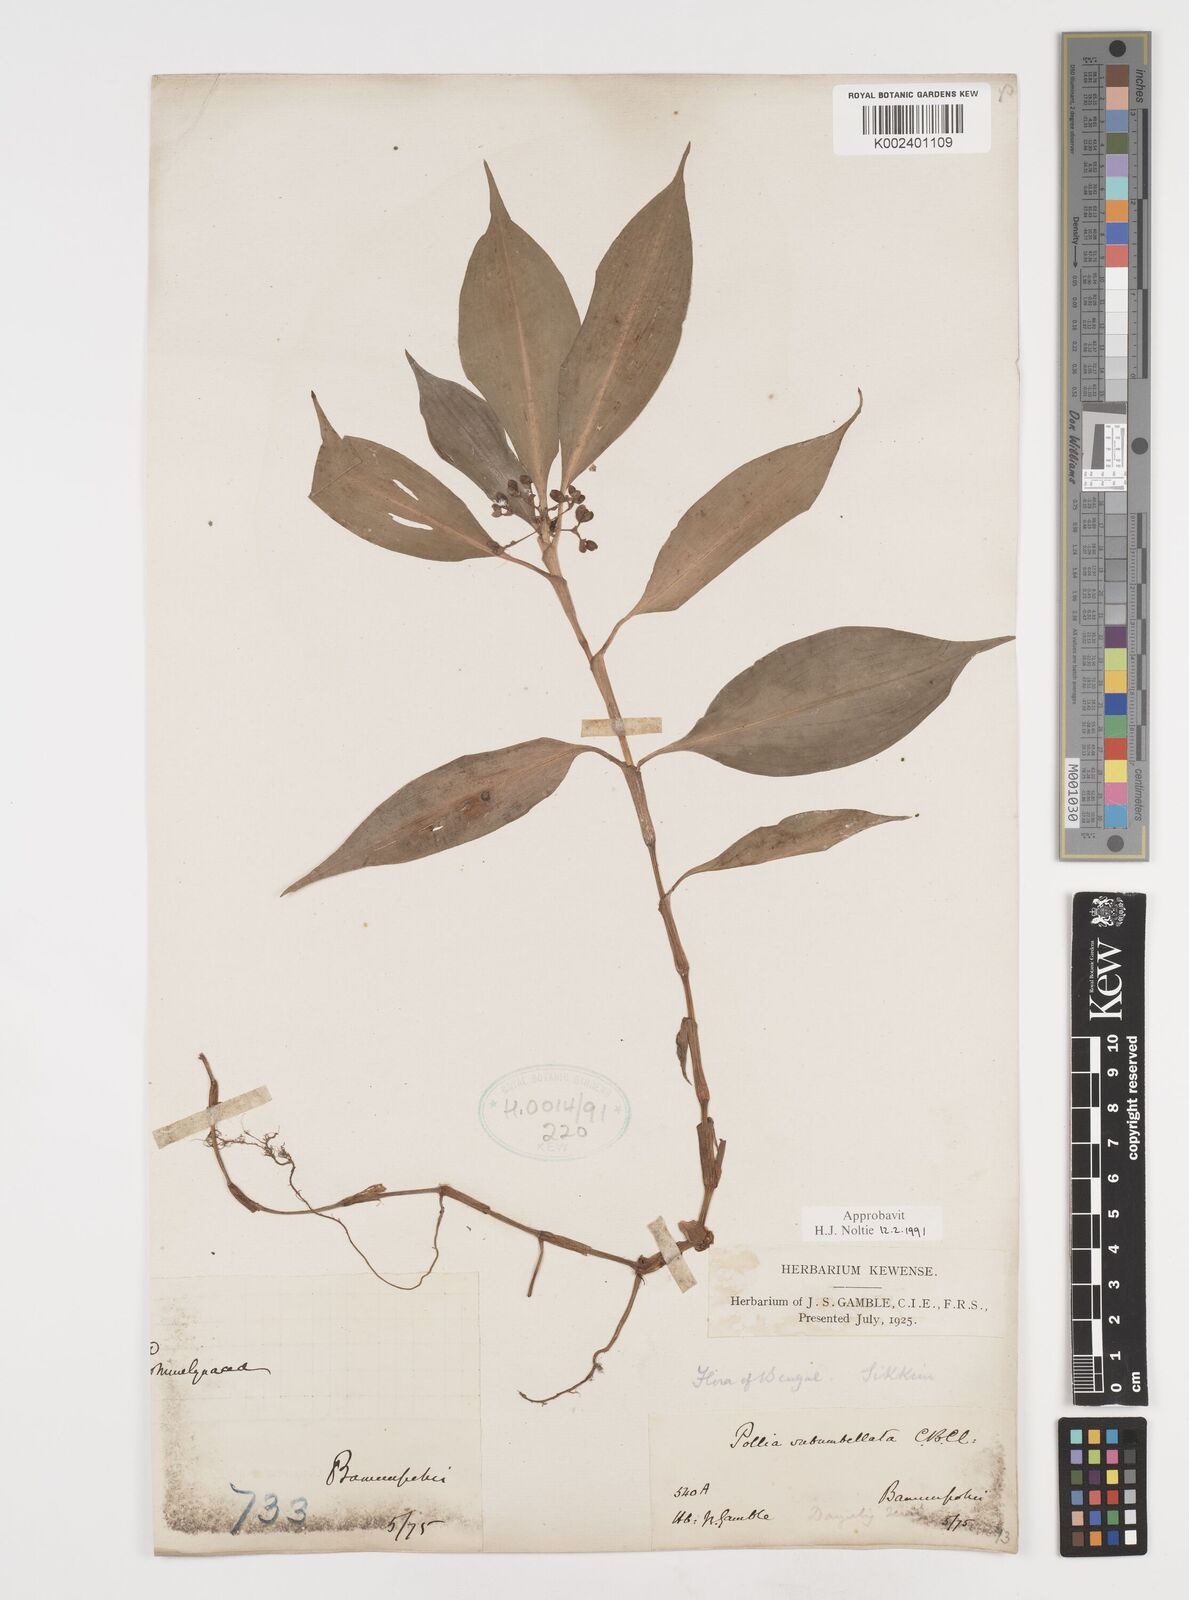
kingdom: Plantae
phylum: Tracheophyta
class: Liliopsida
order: Commelinales
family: Commelinaceae
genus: Pollia
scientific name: Pollia subumbellata
